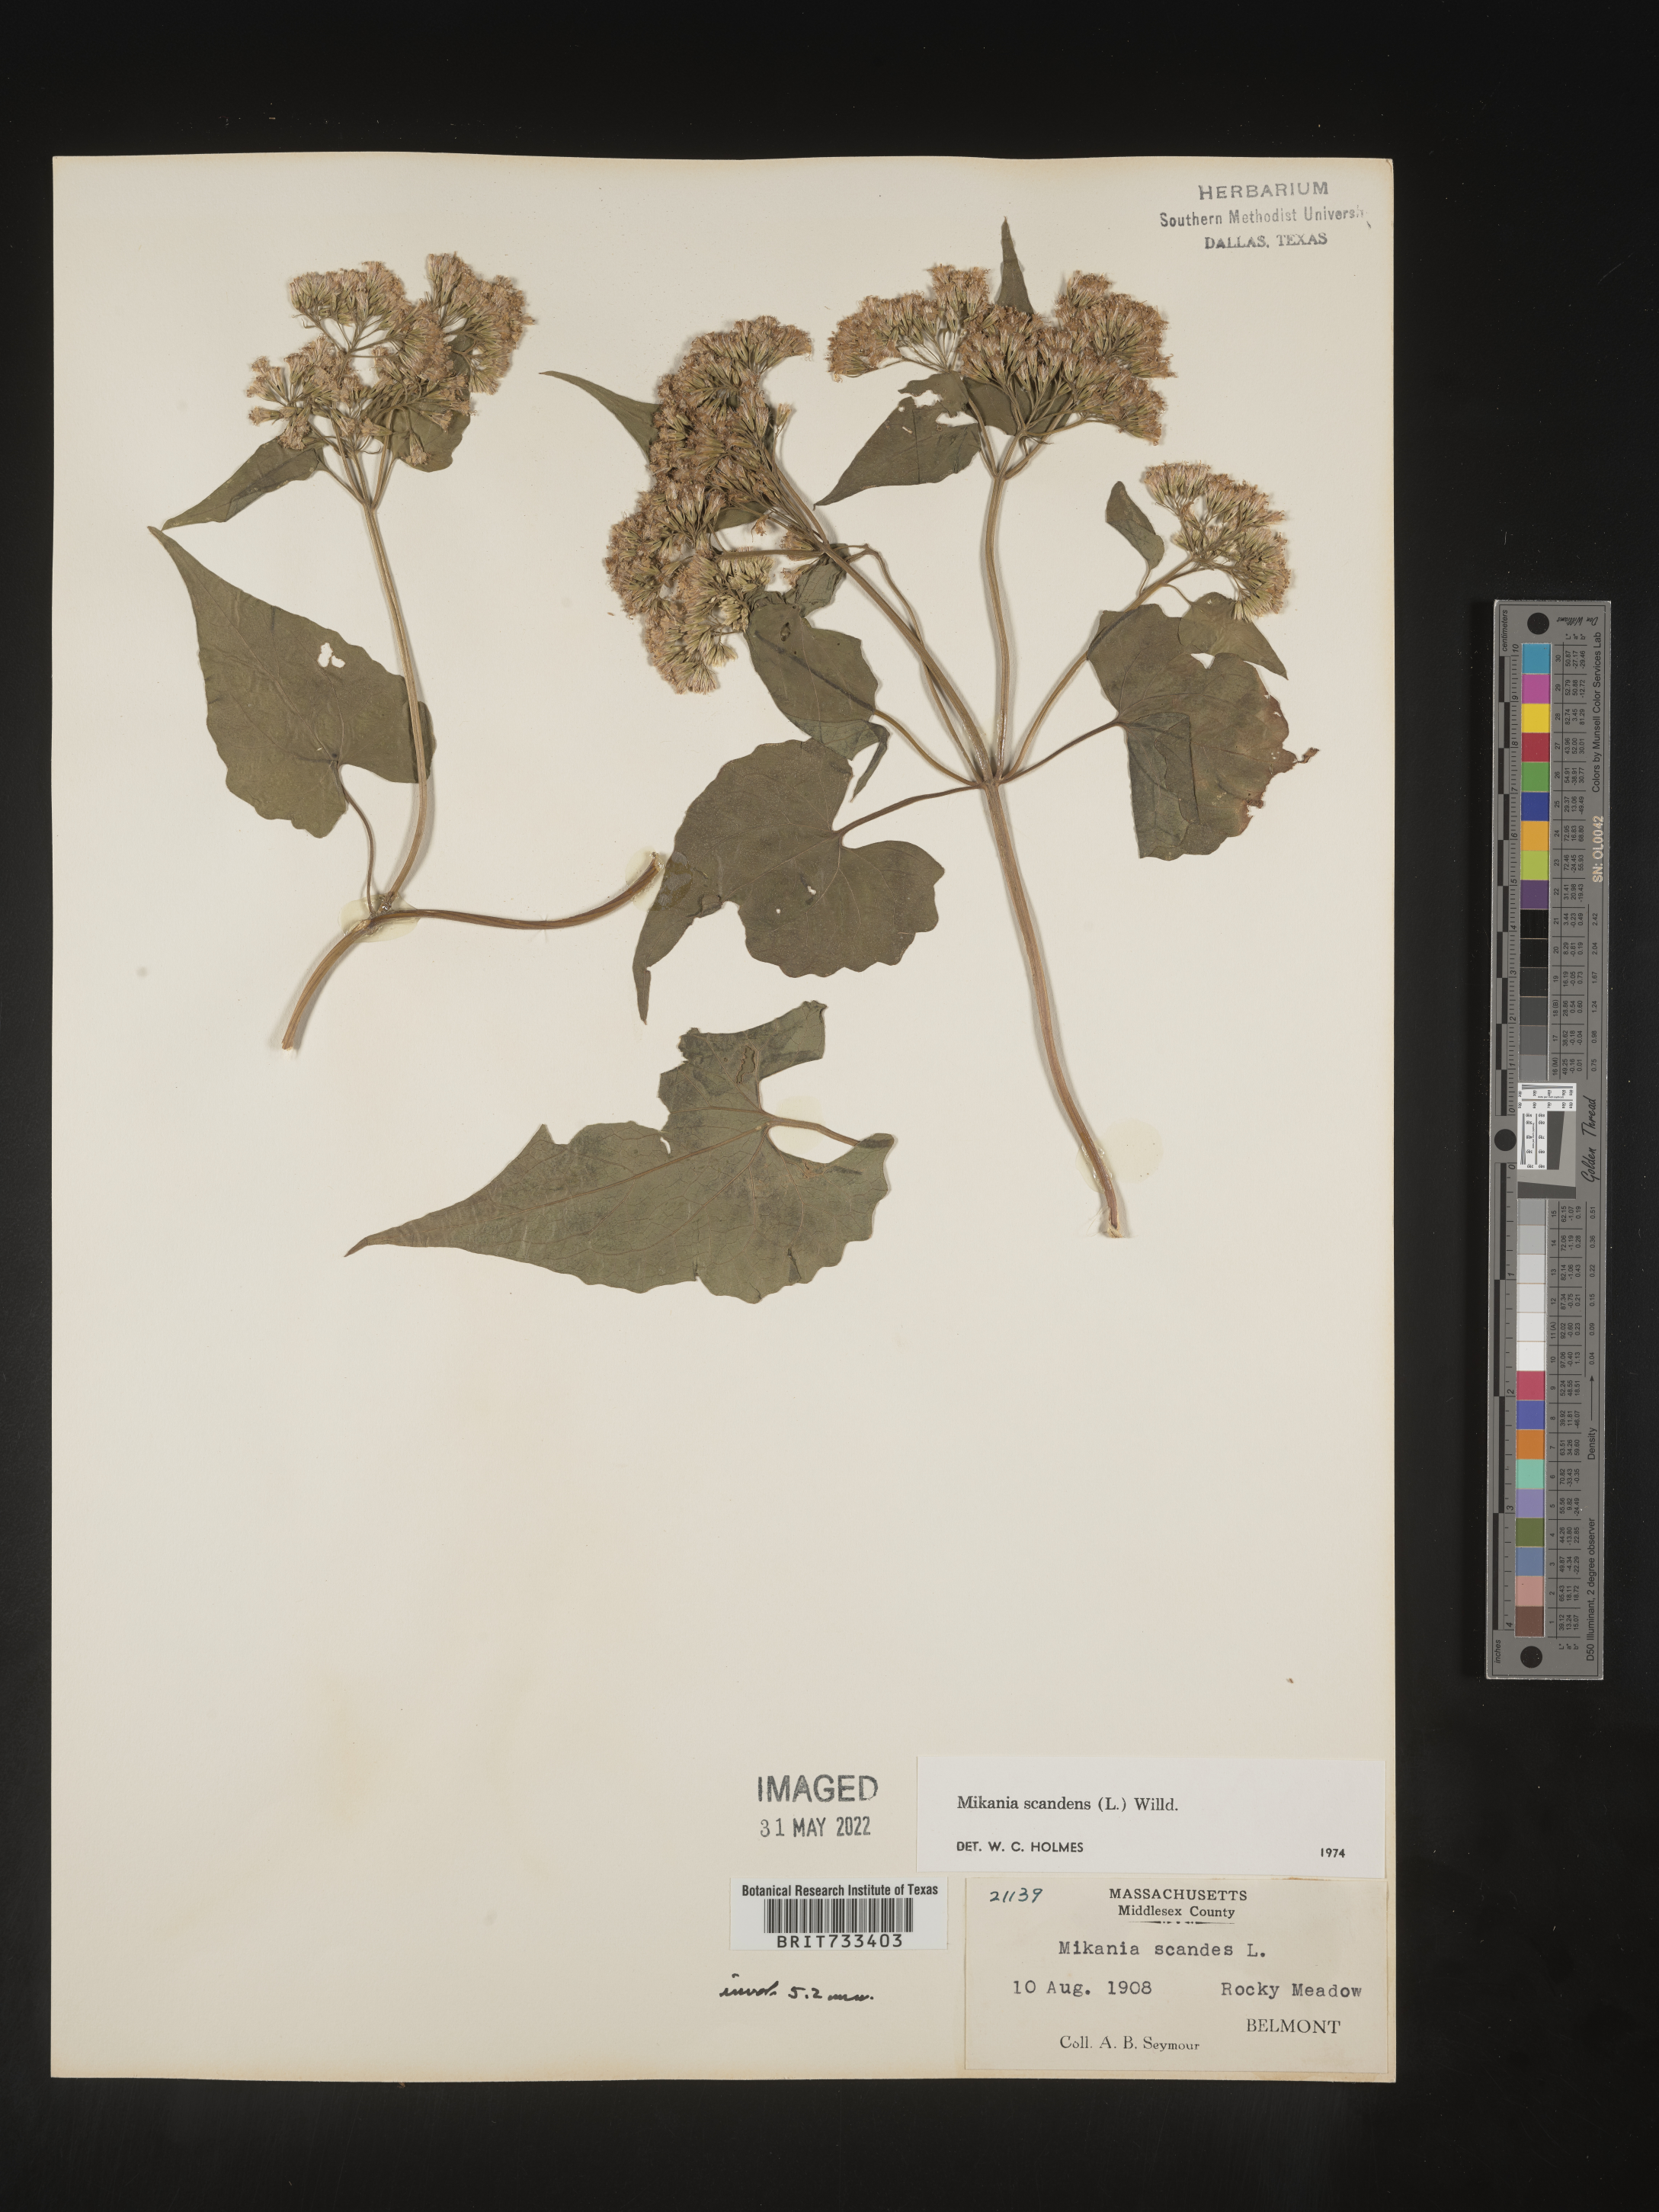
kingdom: Plantae
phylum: Tracheophyta
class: Magnoliopsida
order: Asterales
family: Asteraceae
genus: Mikania
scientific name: Mikania scandens
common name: Climbing hempvine
